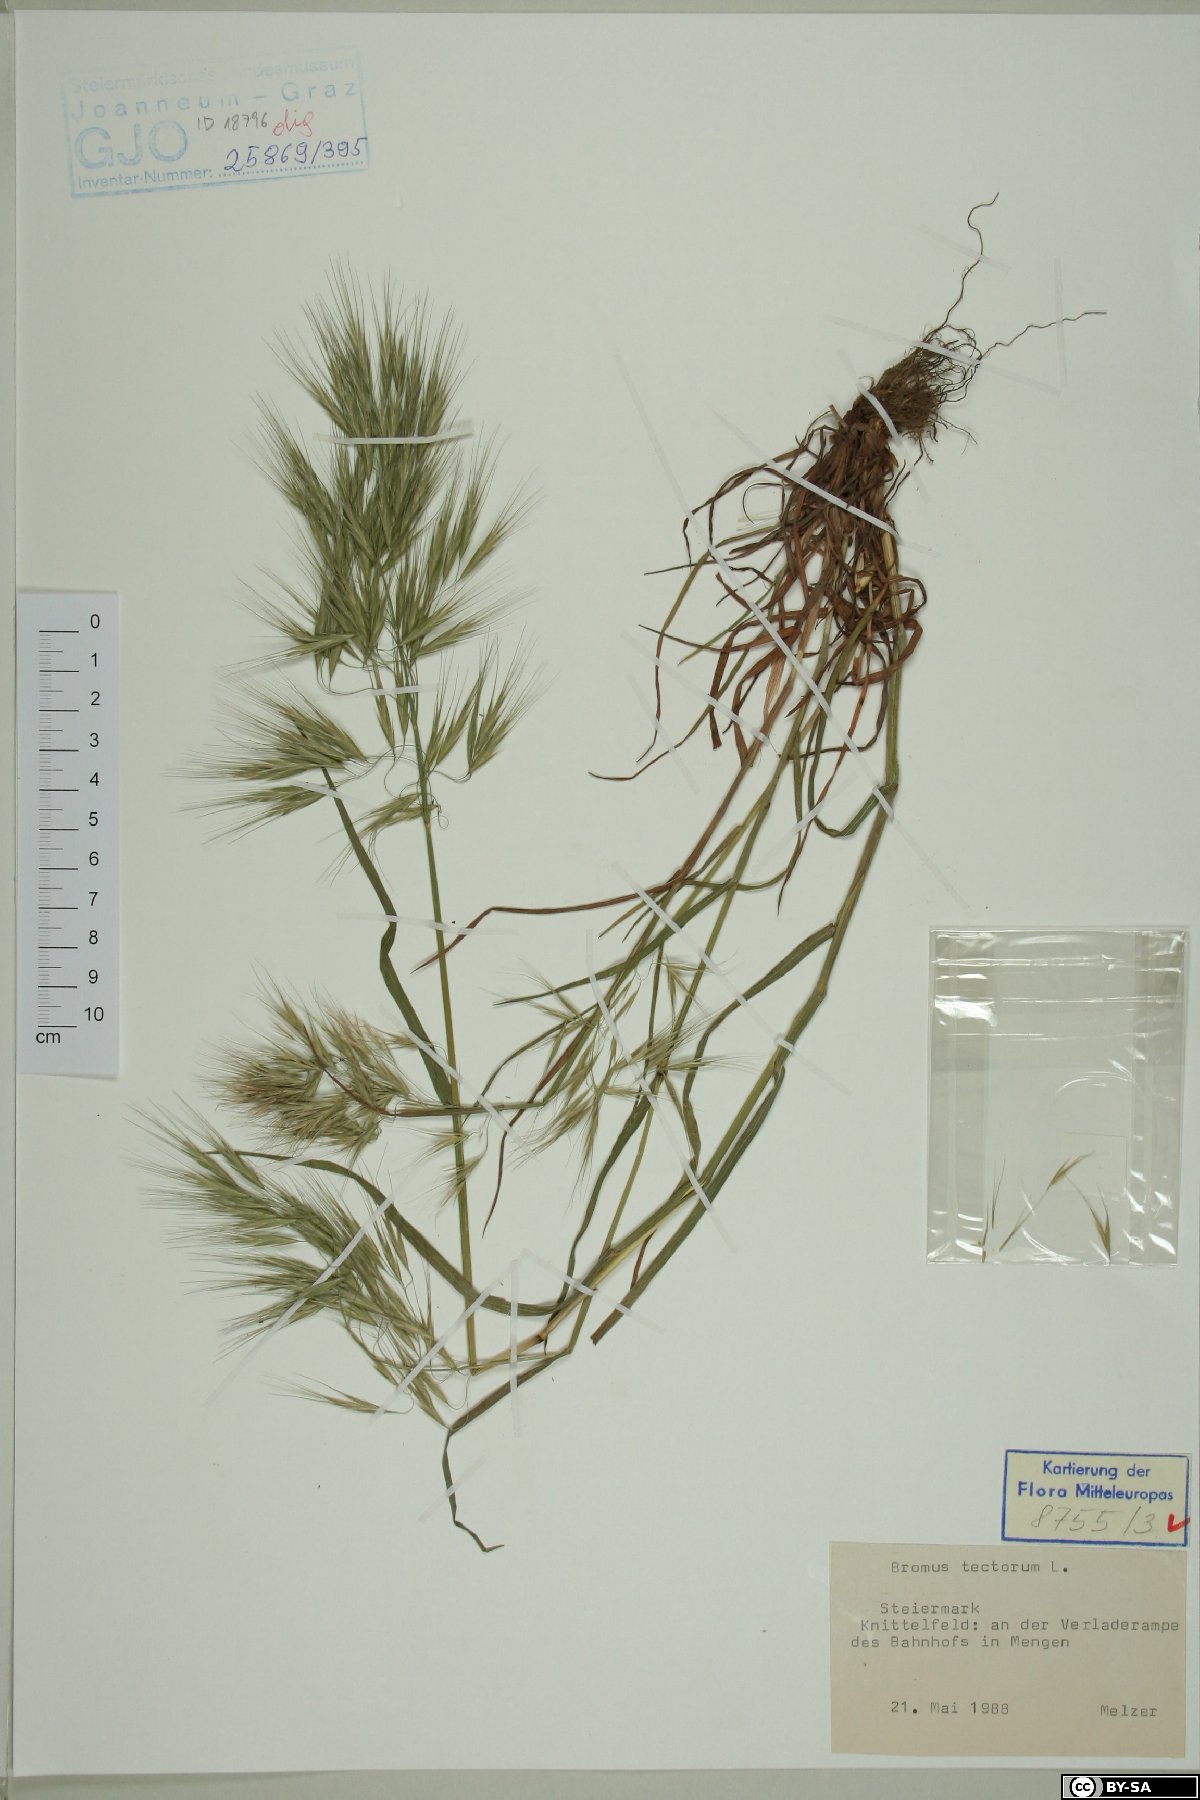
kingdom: Plantae
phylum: Tracheophyta
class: Liliopsida
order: Poales
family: Poaceae
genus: Bromus
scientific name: Bromus tectorum
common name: Cheatgrass
